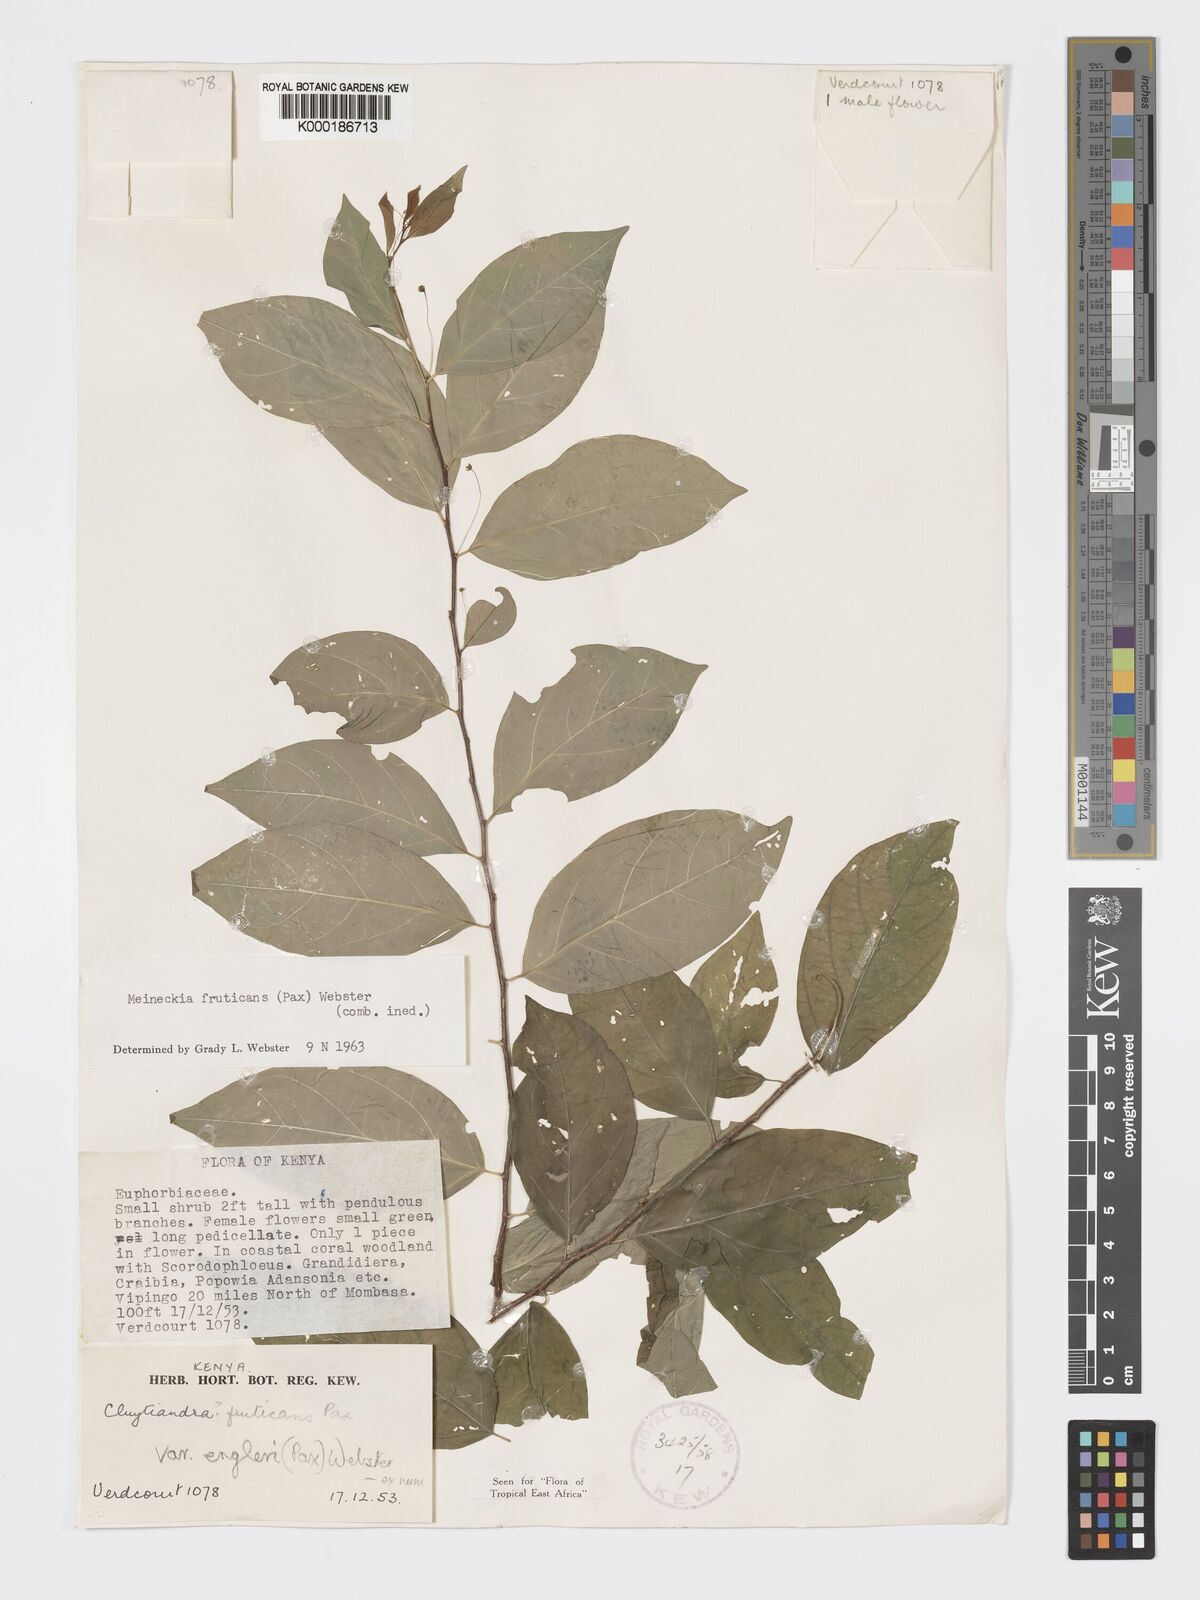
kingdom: Plantae
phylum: Tracheophyta
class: Magnoliopsida
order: Malpighiales
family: Phyllanthaceae
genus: Meineckia
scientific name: Meineckia fruticans
